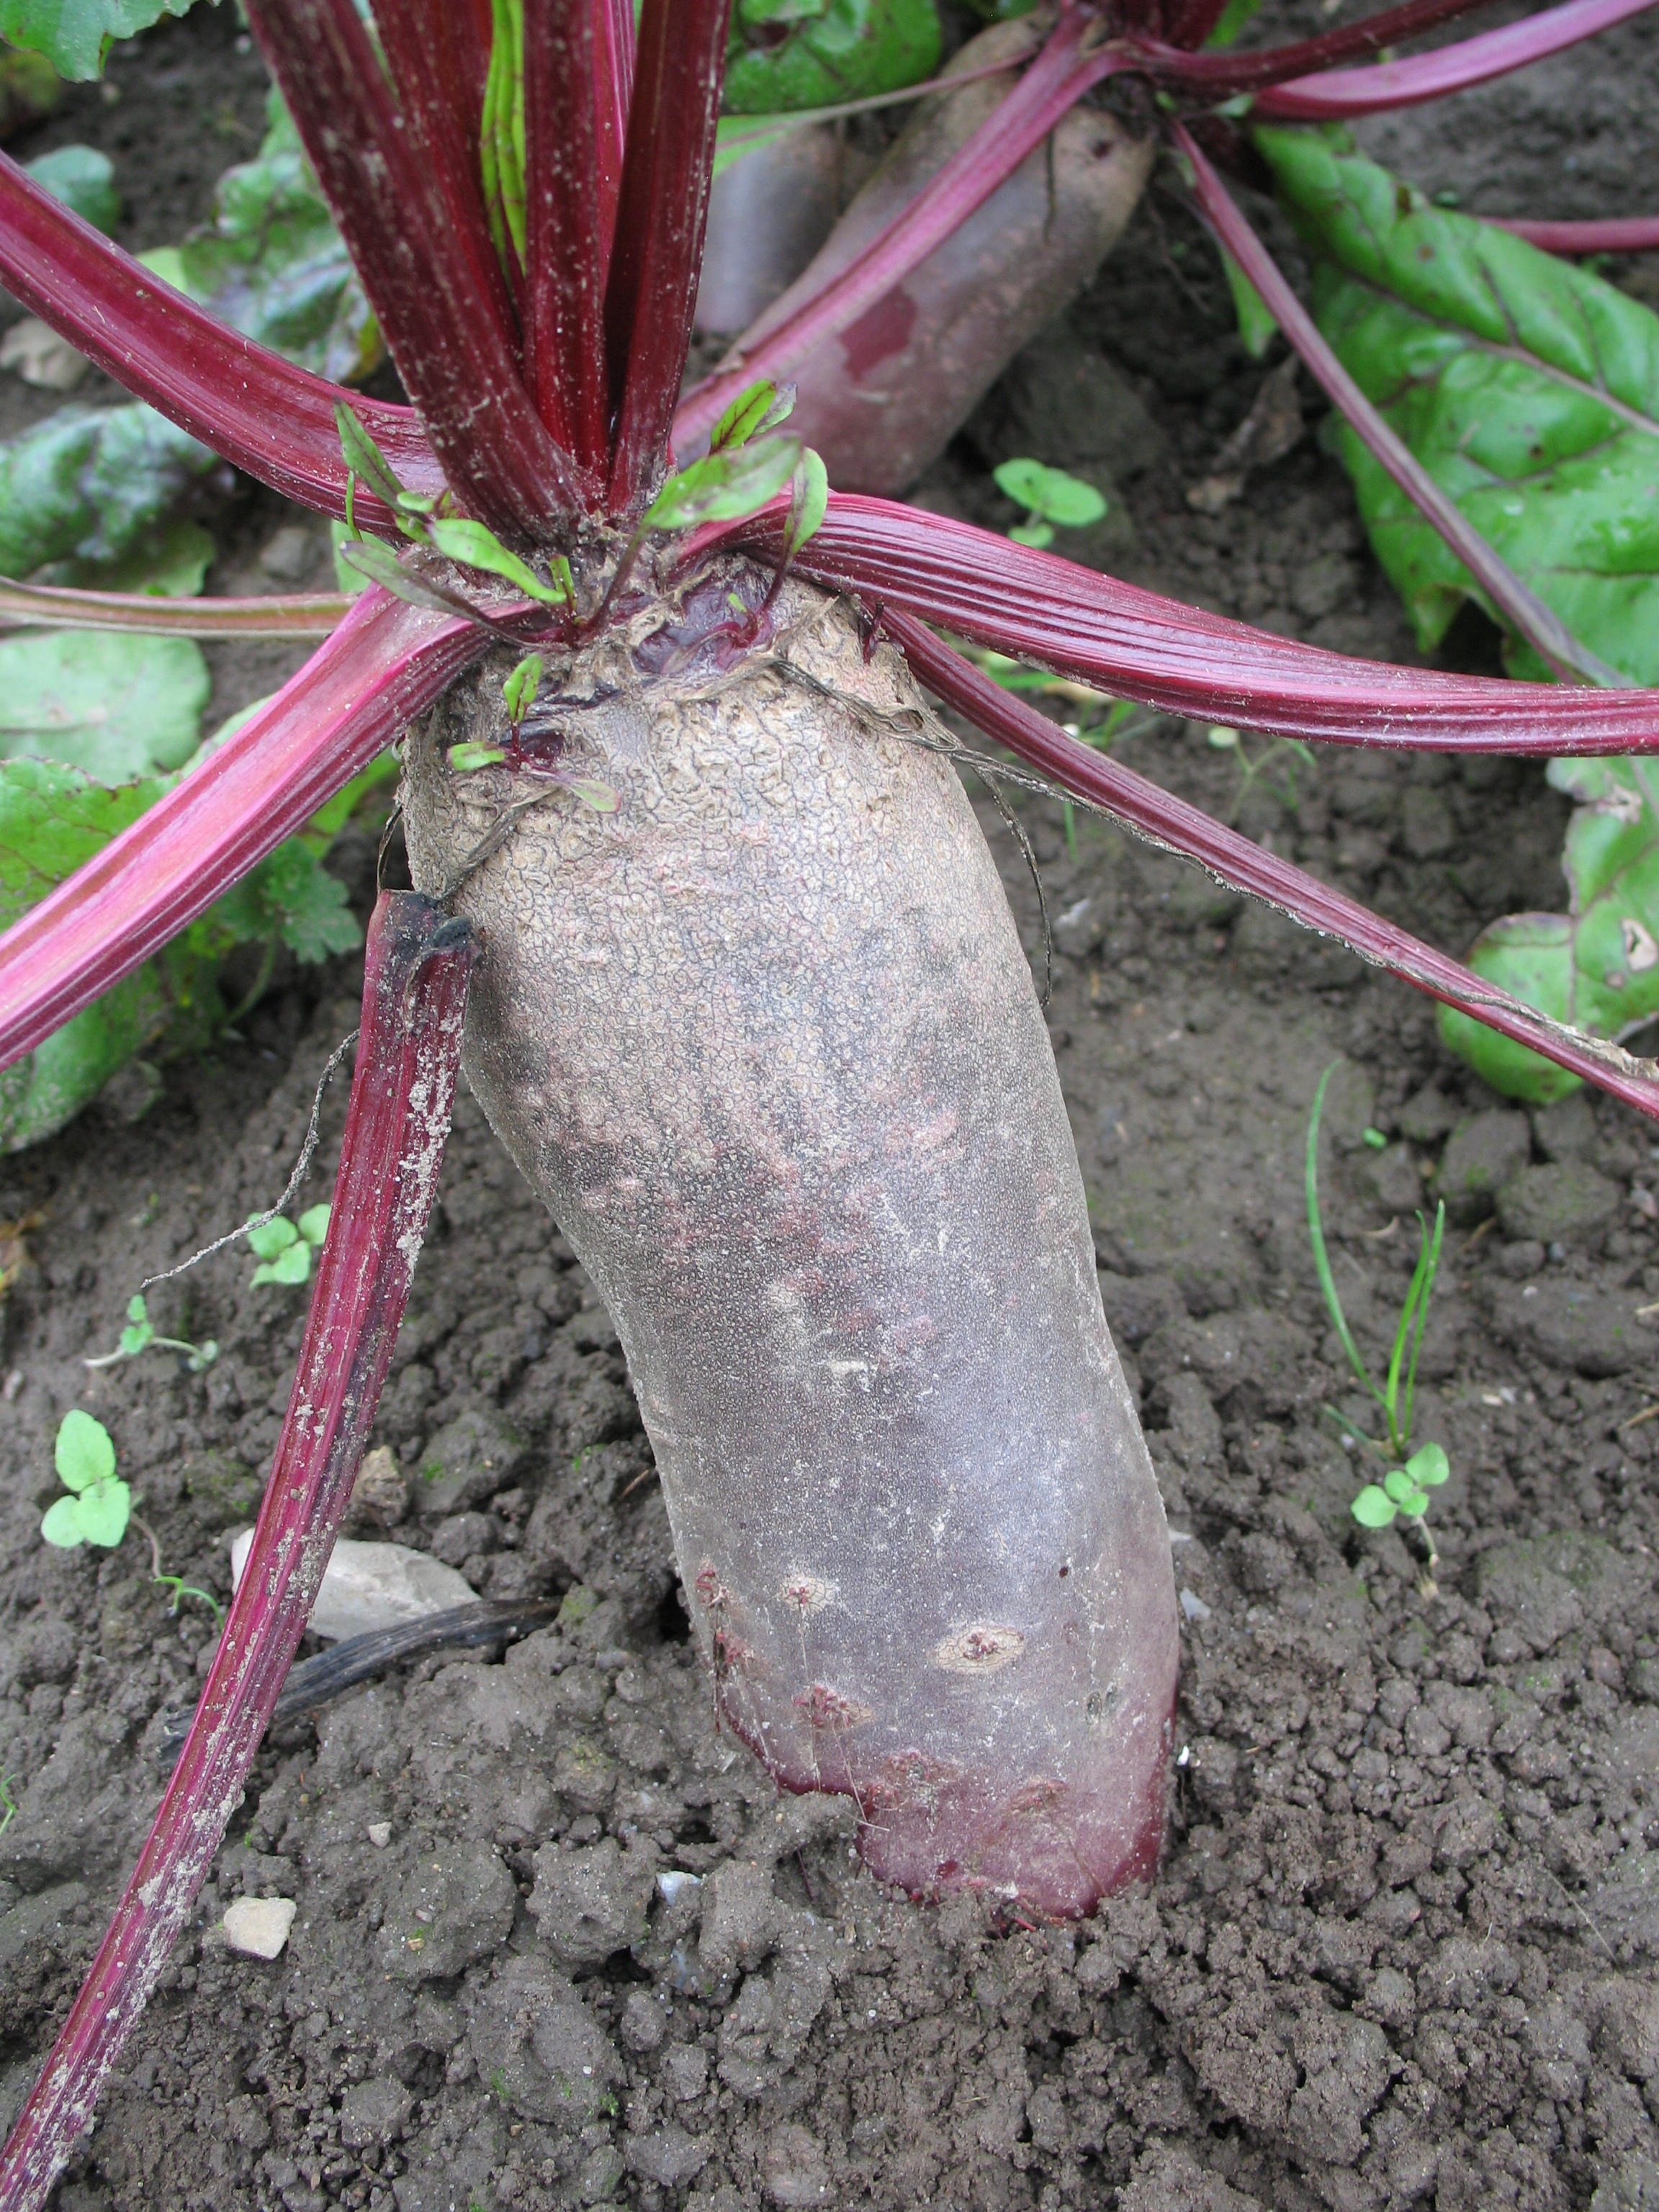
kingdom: Plantae
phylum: Tracheophyta
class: Magnoliopsida
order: Caryophyllales
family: Amaranthaceae
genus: Beta
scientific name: Beta vulgaris
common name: Beet
